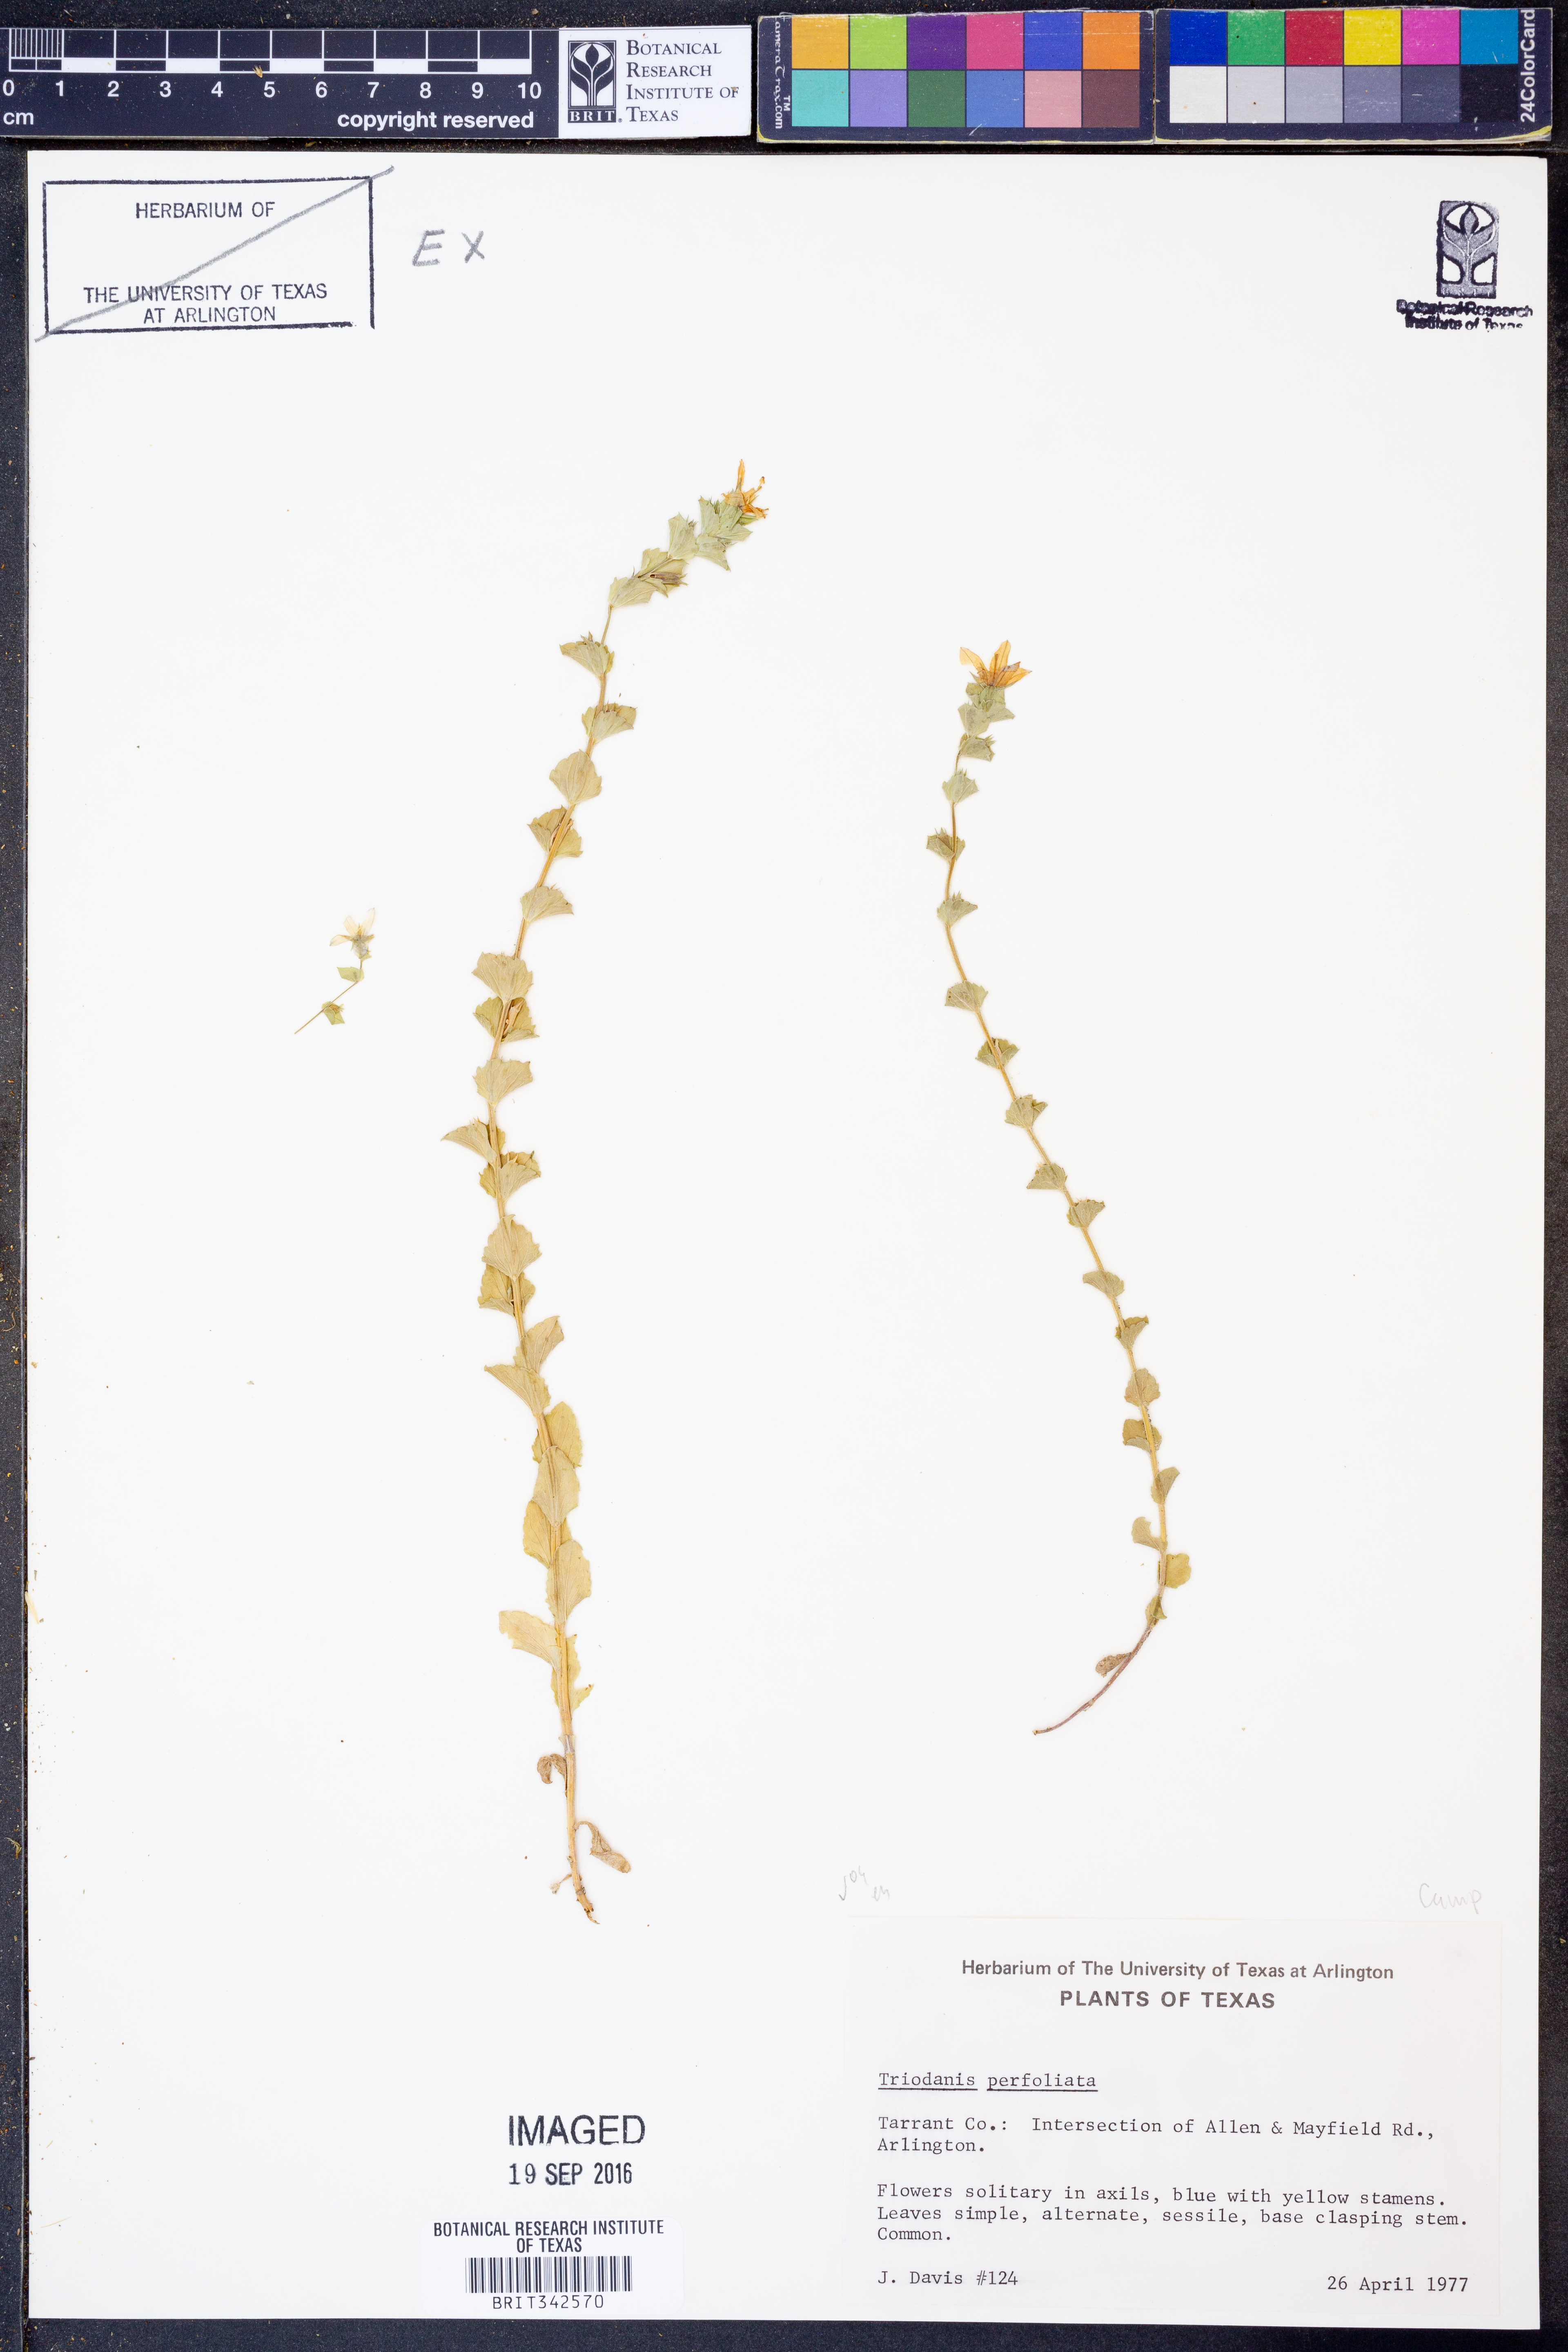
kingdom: Plantae
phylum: Tracheophyta
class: Magnoliopsida
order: Asterales
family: Campanulaceae
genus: Triodanis
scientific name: Triodanis perfoliata
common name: Clasping venus' looking-glass
